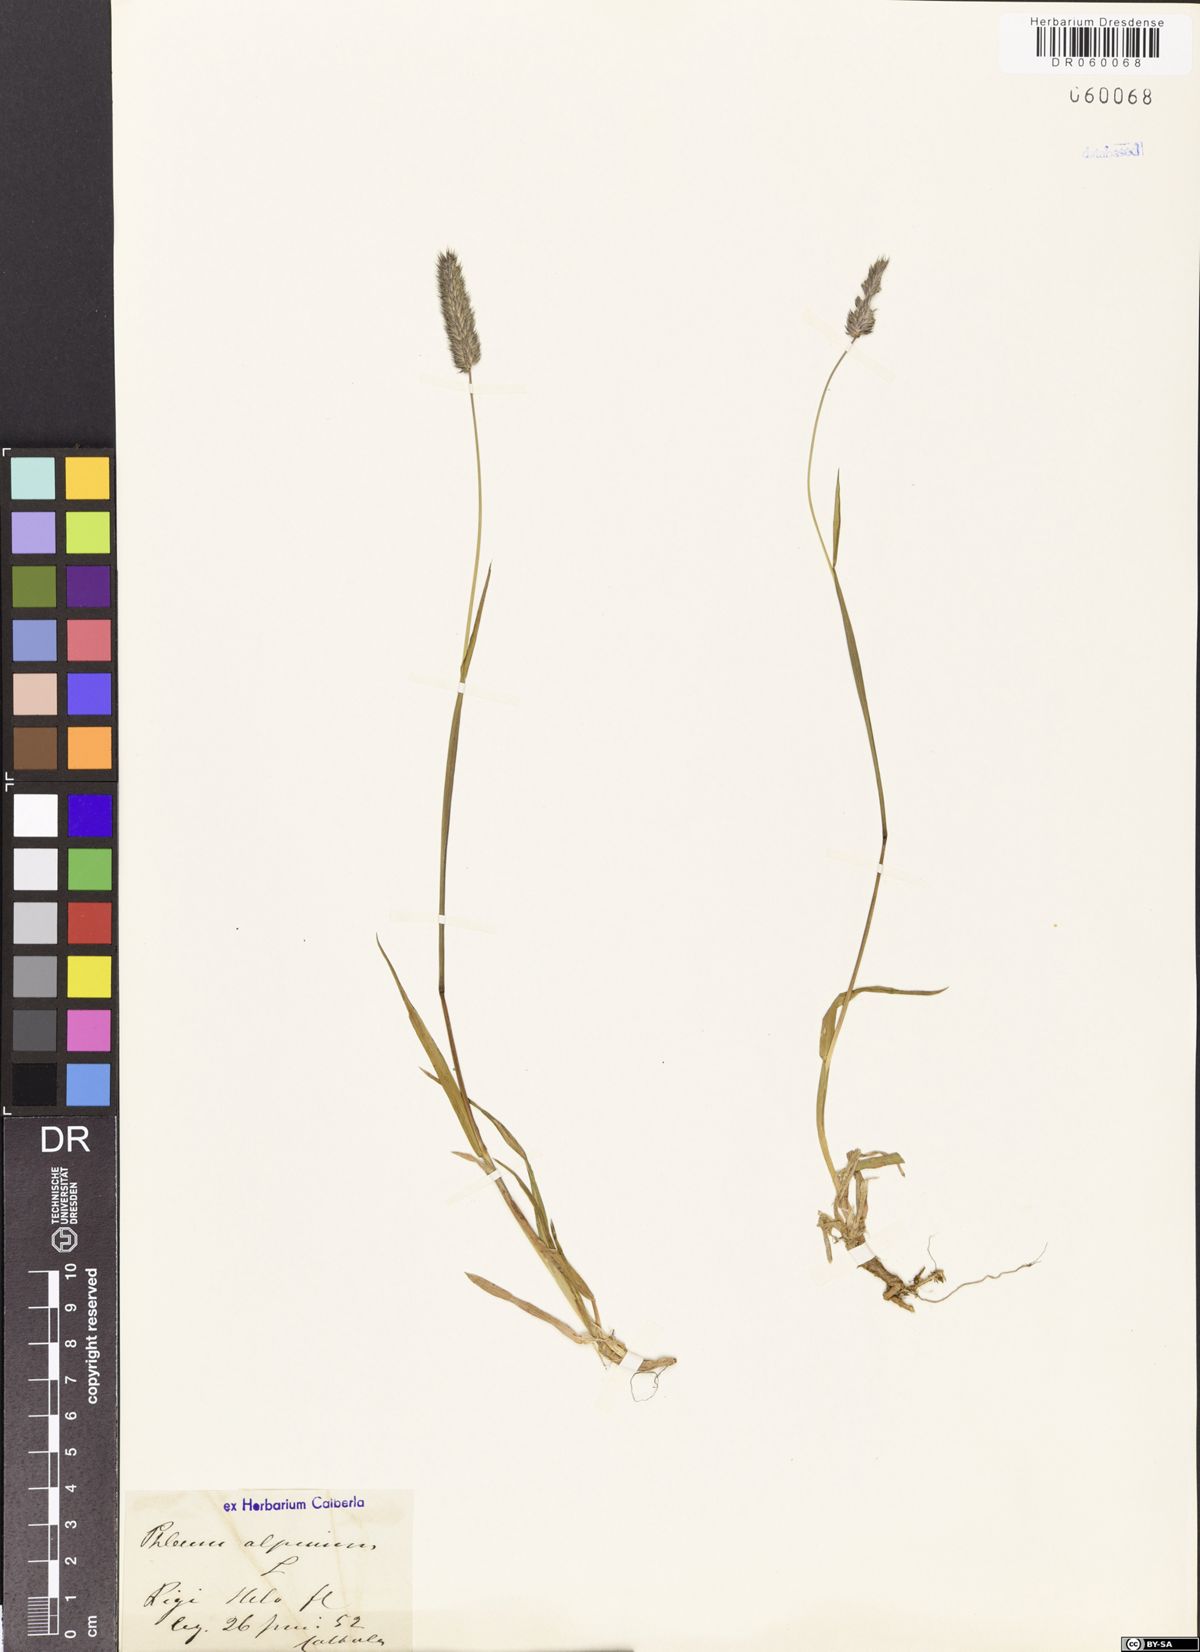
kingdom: Plantae
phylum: Tracheophyta
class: Liliopsida
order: Poales
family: Poaceae
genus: Phleum
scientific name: Phleum alpinum
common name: Alpine cat's-tail
